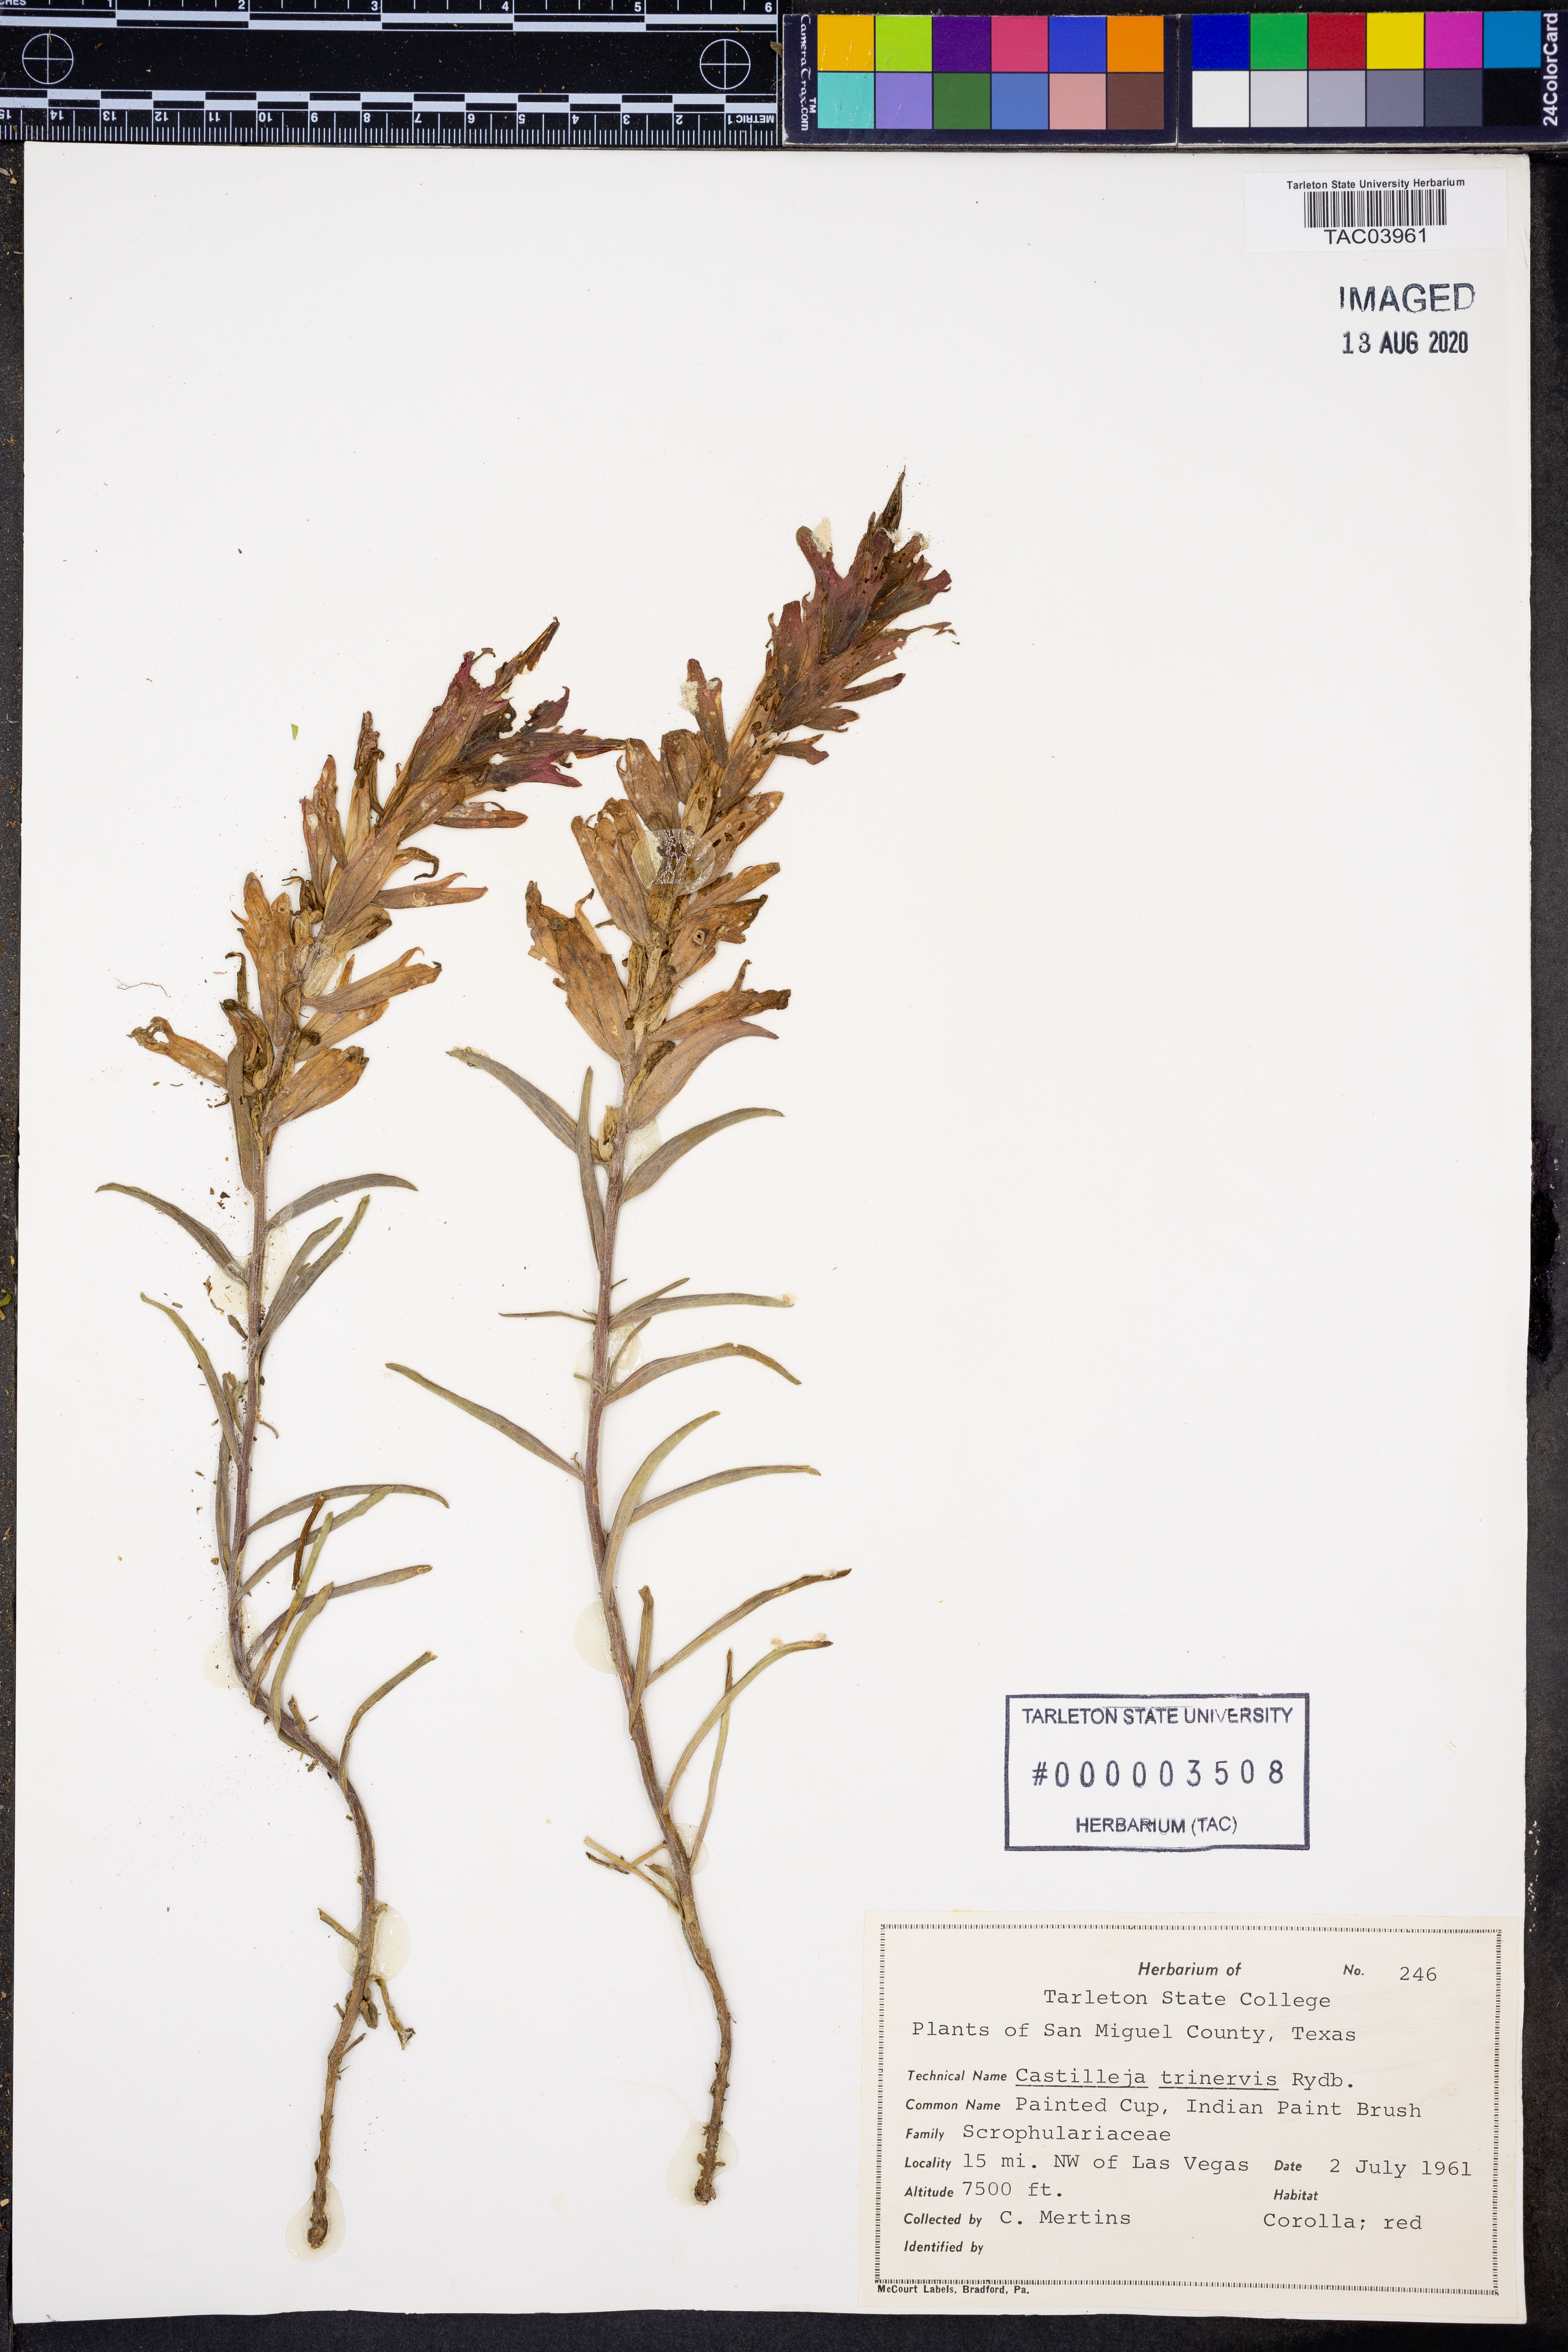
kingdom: Plantae
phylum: Tracheophyta
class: Magnoliopsida
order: Lamiales
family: Orobanchaceae
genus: Castilleja
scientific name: Castilleja miniata
